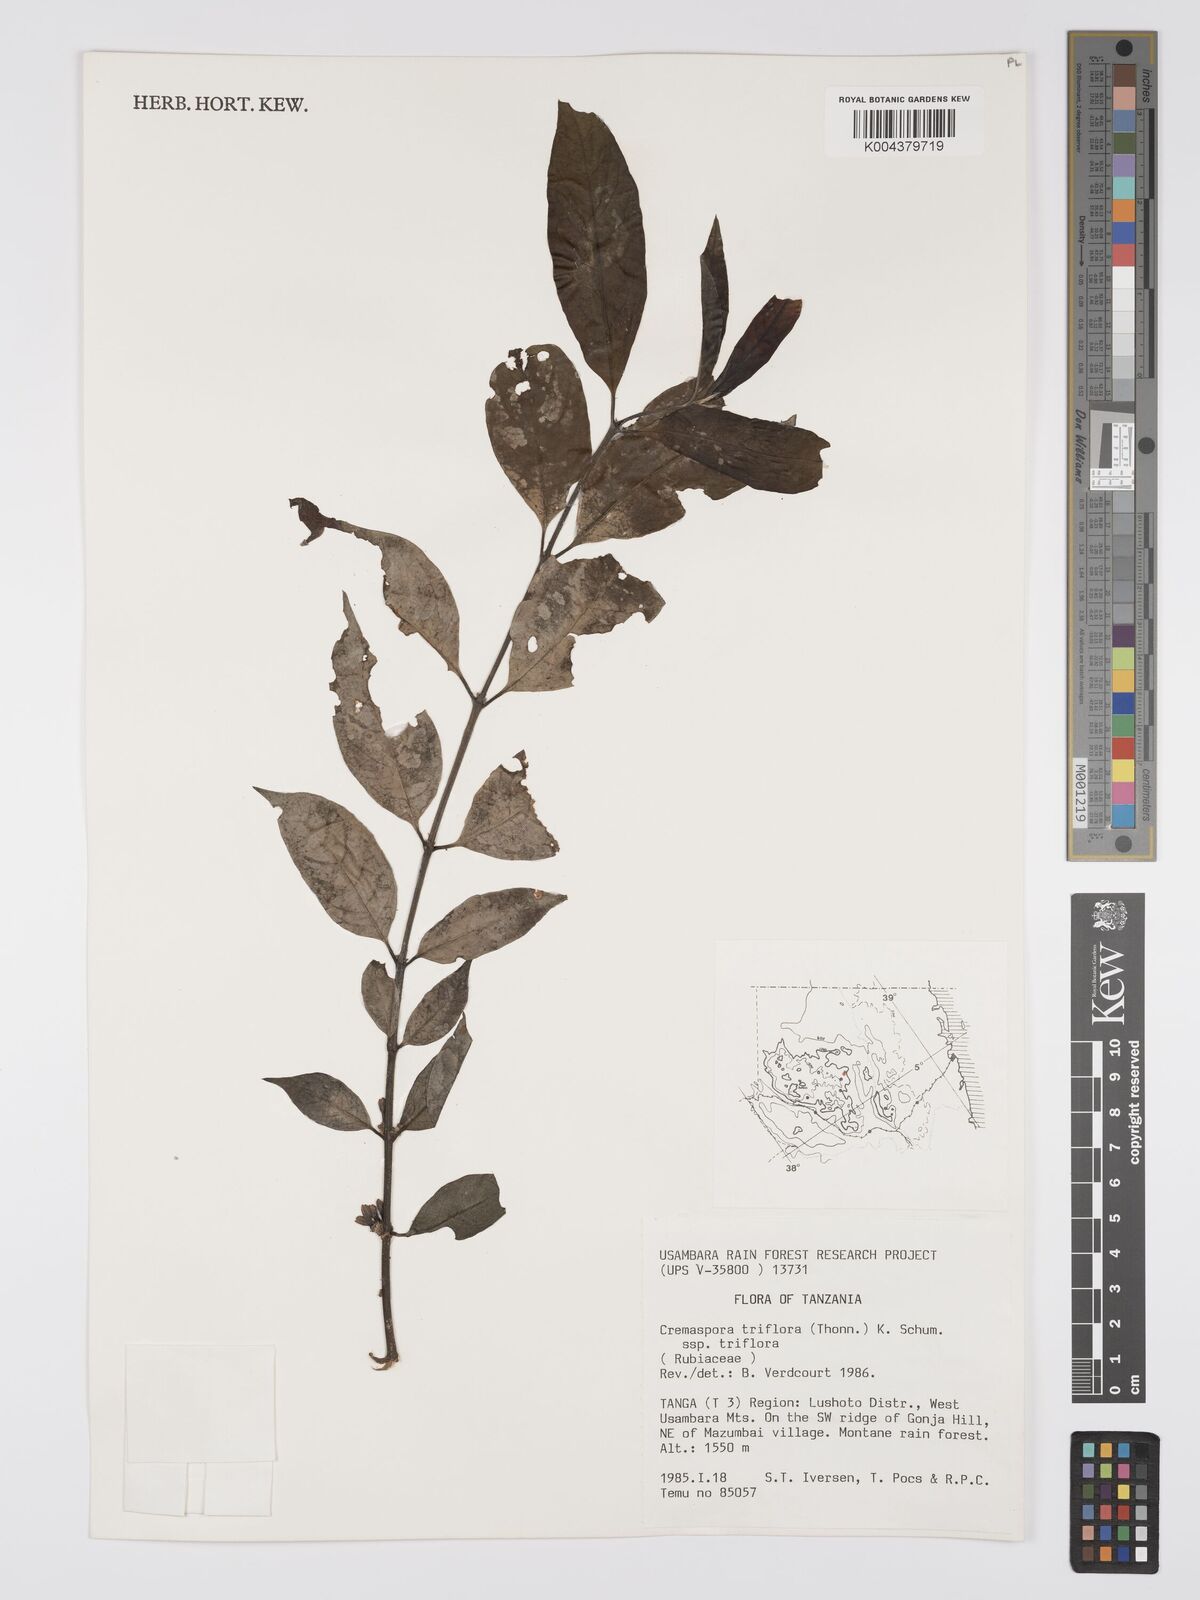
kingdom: Plantae
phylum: Tracheophyta
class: Magnoliopsida
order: Gentianales
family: Rubiaceae
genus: Cremaspora
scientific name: Cremaspora triflora
